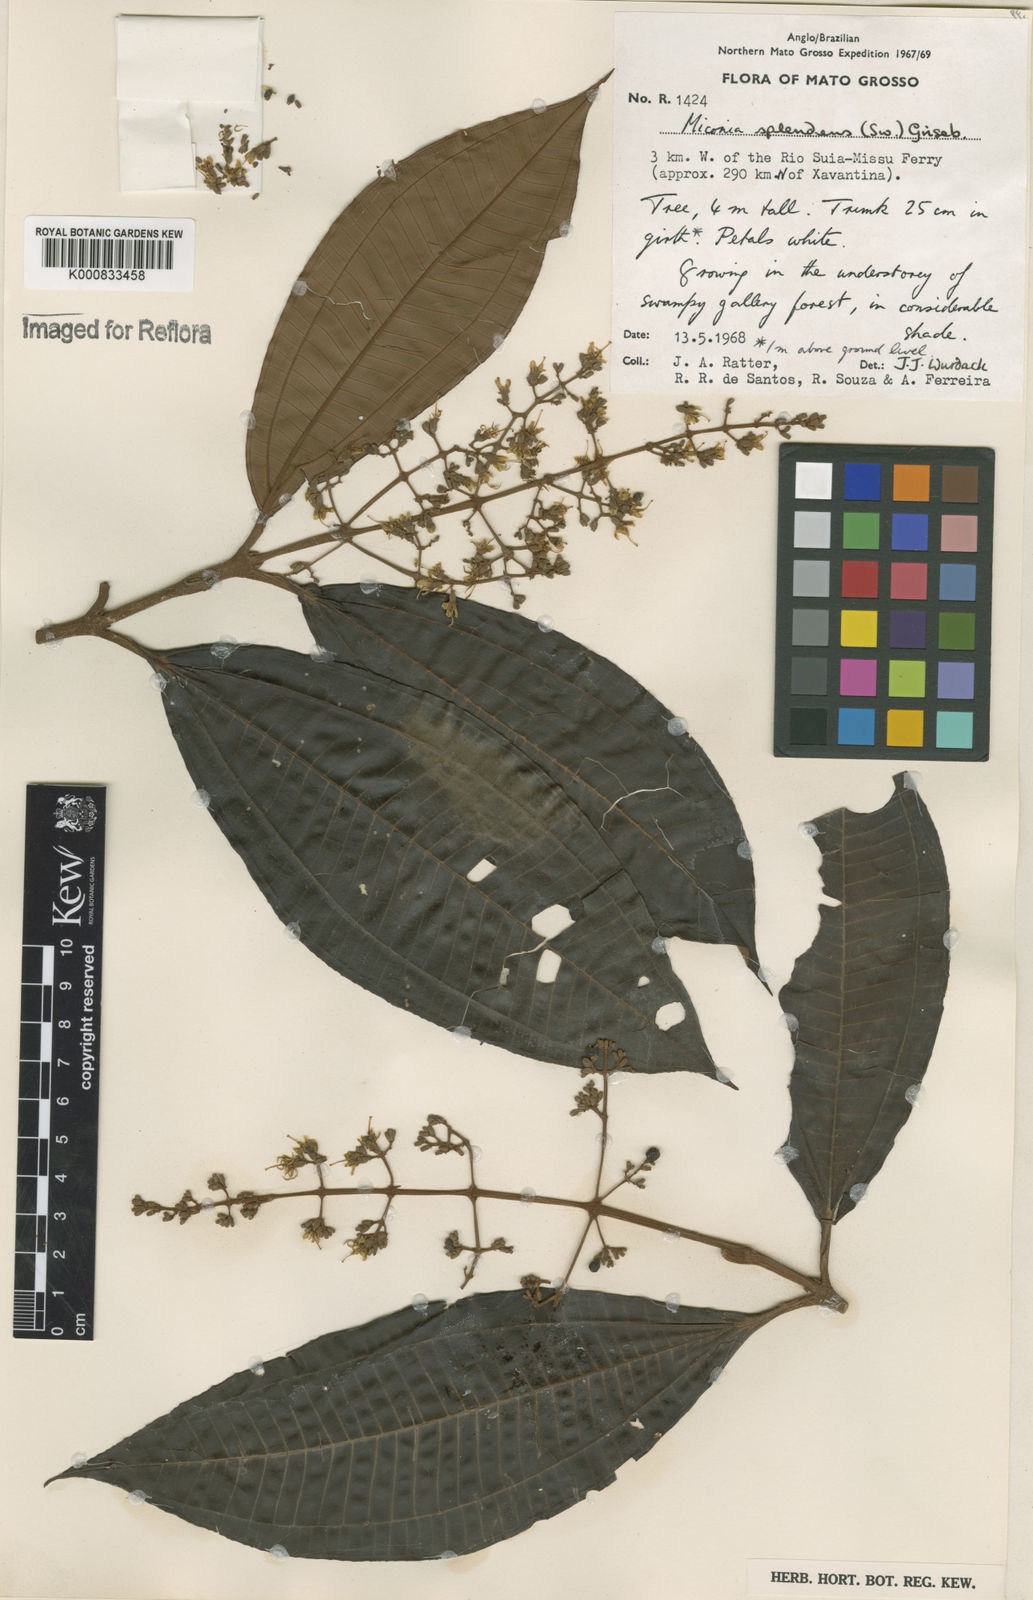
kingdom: Plantae
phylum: Tracheophyta
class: Magnoliopsida
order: Myrtales
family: Melastomataceae
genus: Miconia
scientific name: Miconia splendens
